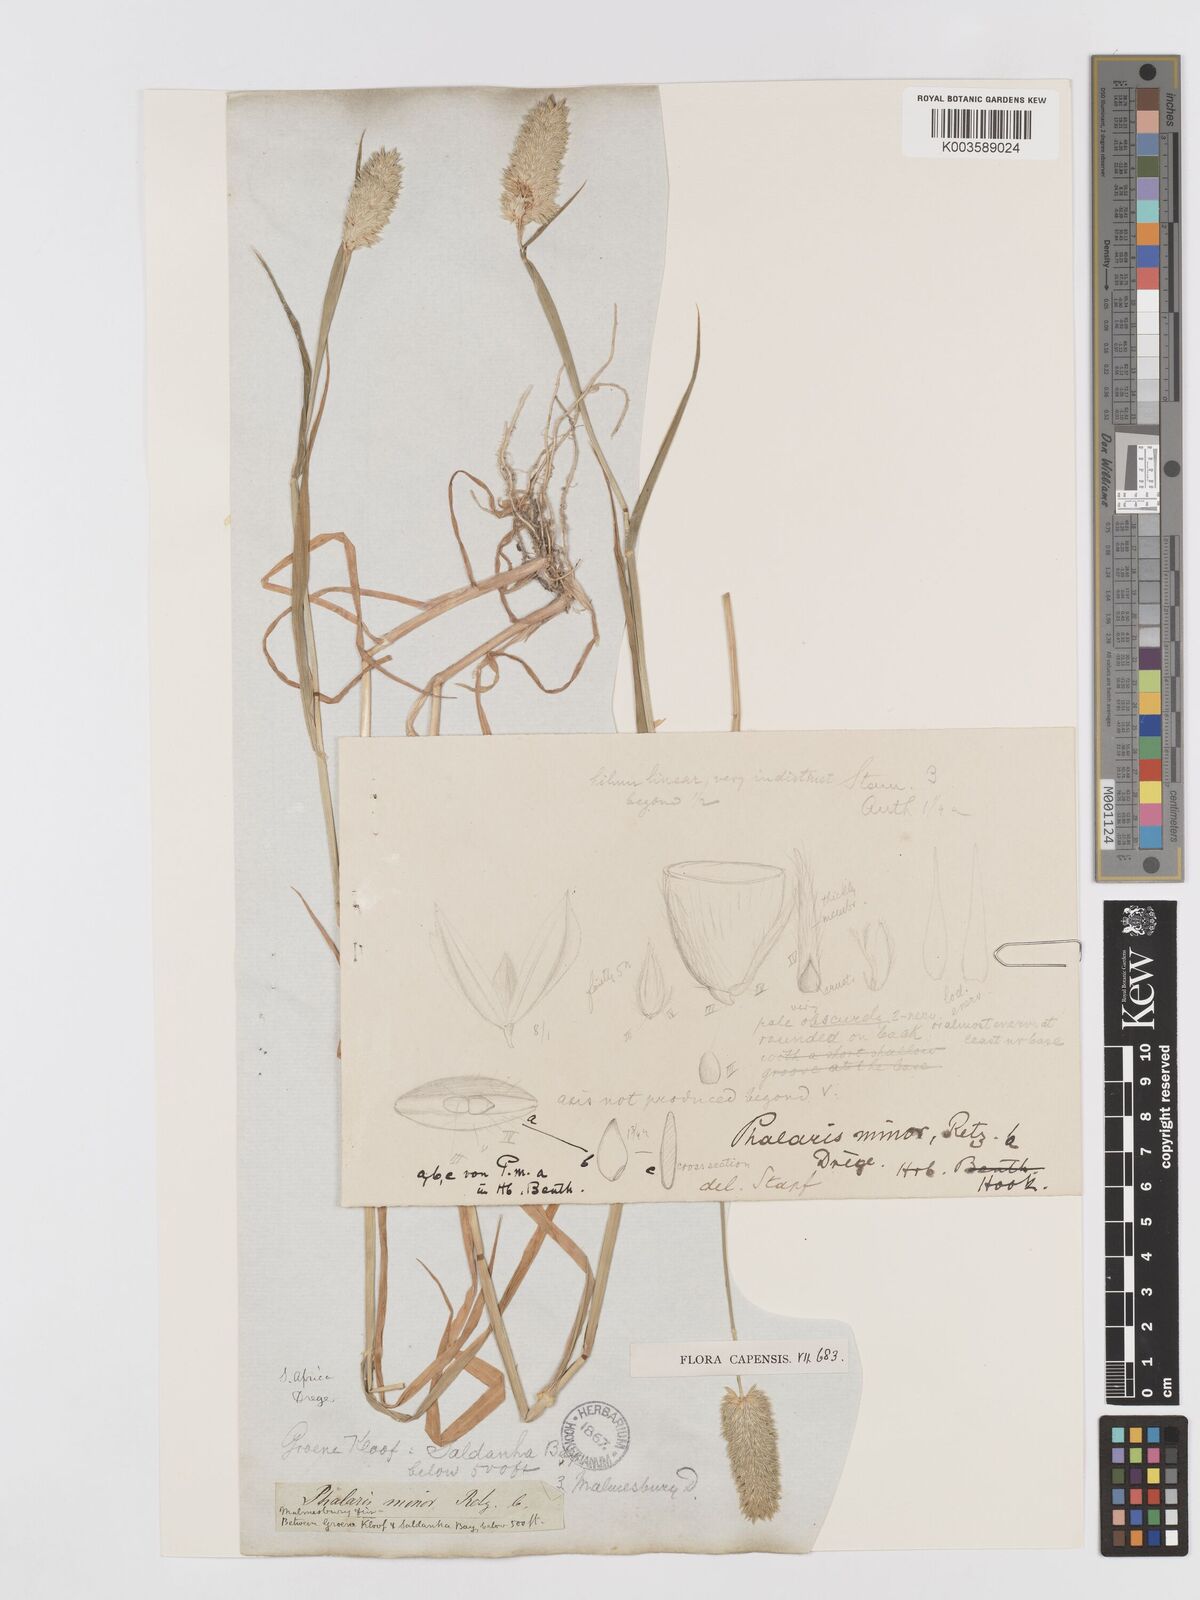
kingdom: Plantae
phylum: Tracheophyta
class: Liliopsida
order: Poales
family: Poaceae
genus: Phalaris
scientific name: Phalaris minor
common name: Littleseed canarygrass
